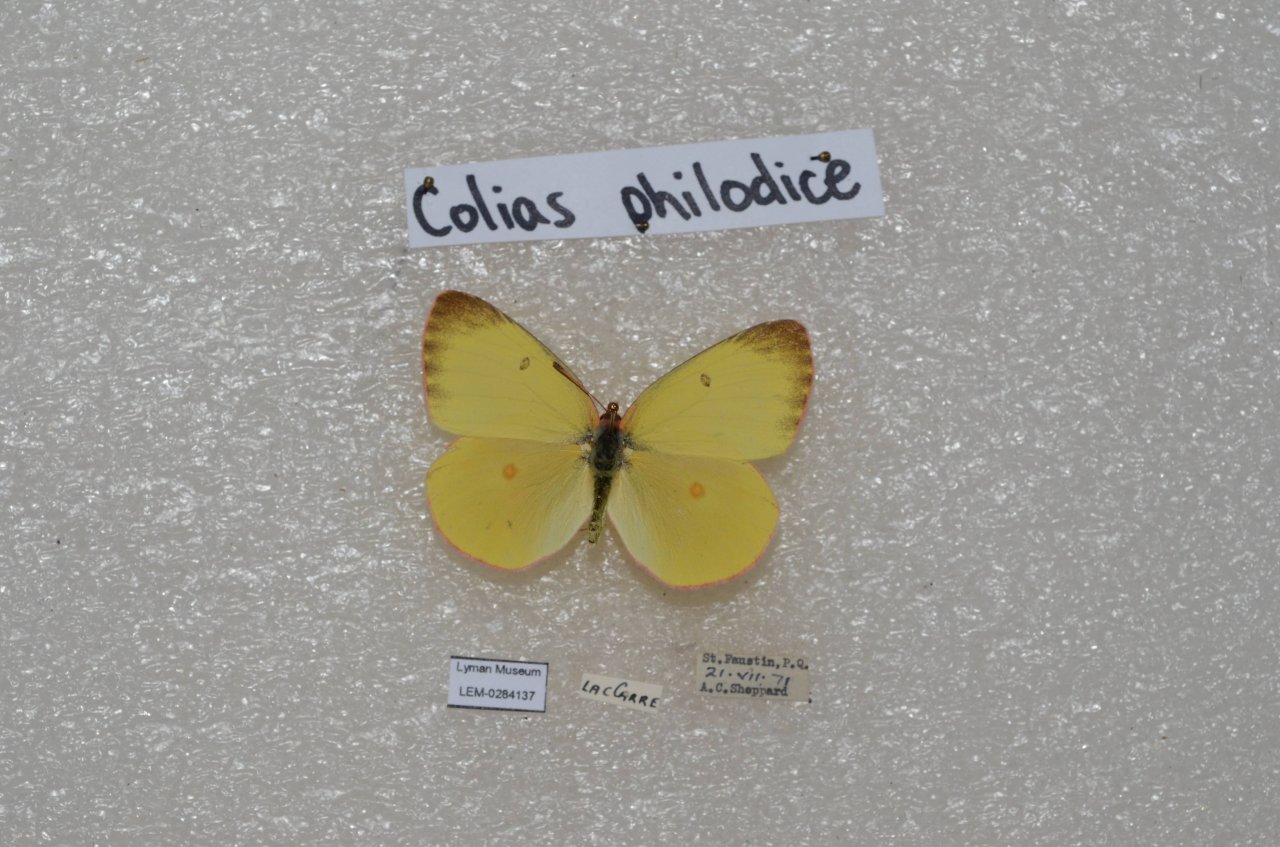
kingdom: Animalia
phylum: Arthropoda
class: Insecta
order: Lepidoptera
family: Pieridae
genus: Colias
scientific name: Colias interior
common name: Pink-edged Sulphur
